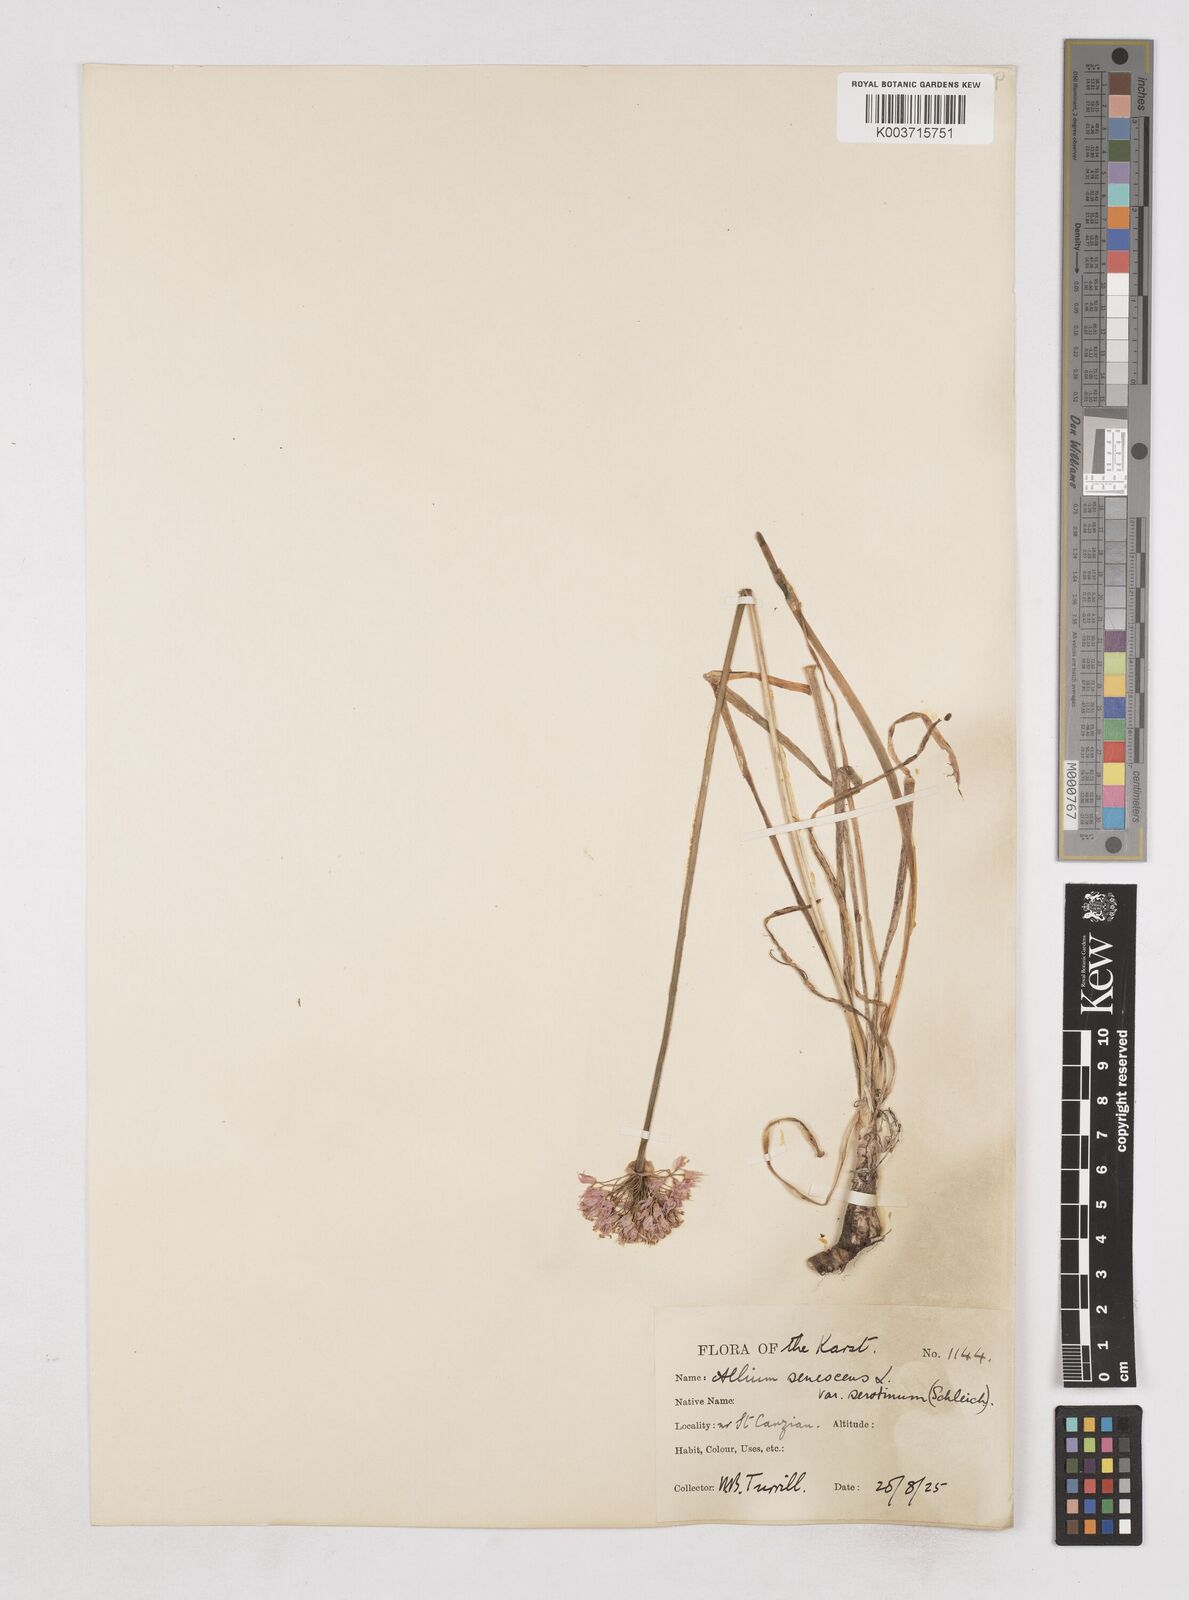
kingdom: Plantae
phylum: Tracheophyta
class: Liliopsida
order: Asparagales
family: Amaryllidaceae
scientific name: Amaryllidaceae
